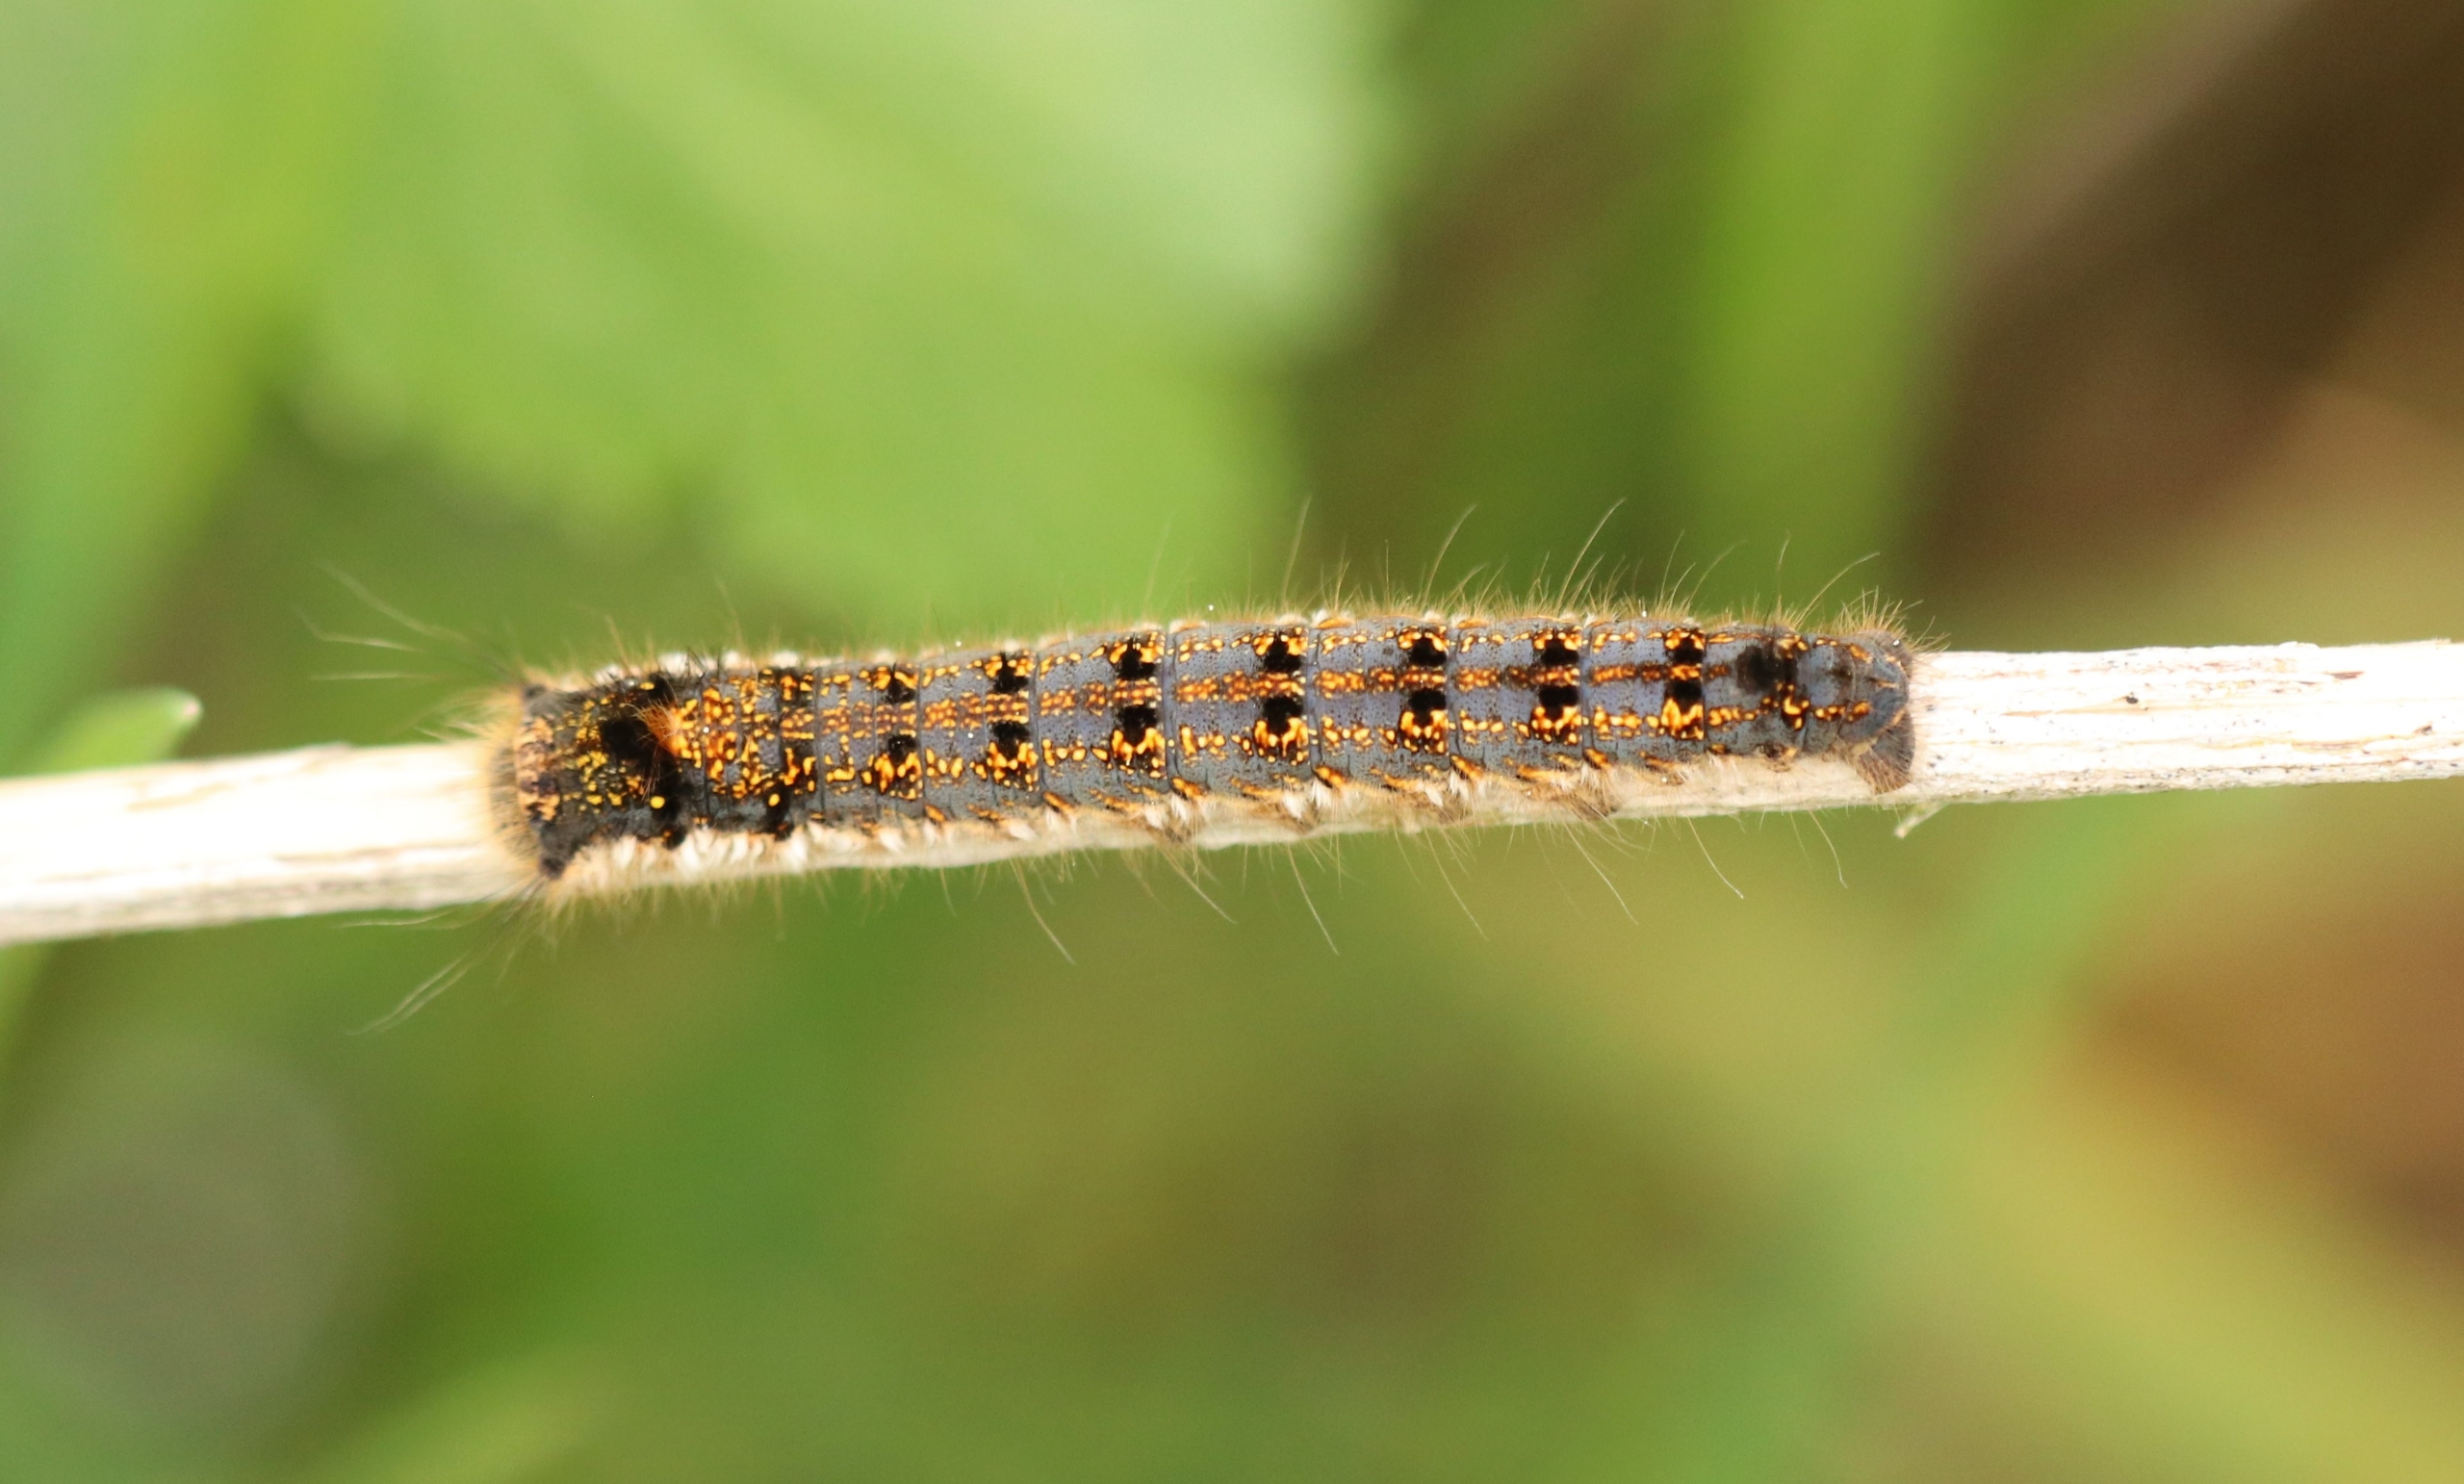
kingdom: Animalia
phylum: Arthropoda
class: Insecta
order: Lepidoptera
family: Lasiocampidae
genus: Euthrix
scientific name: Euthrix potatoria
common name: Græsspinder
